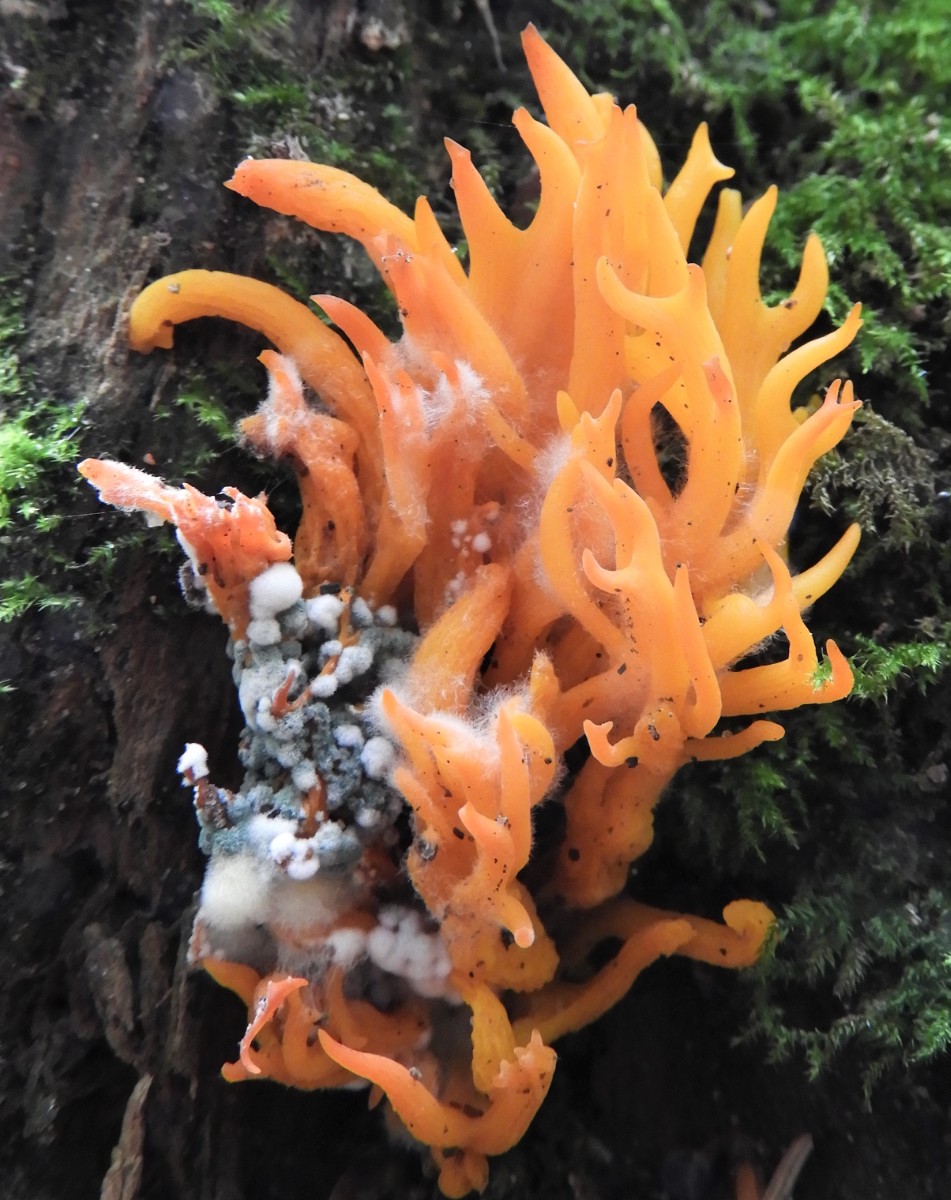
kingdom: Fungi
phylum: Basidiomycota
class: Dacrymycetes
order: Dacrymycetales
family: Dacrymycetaceae
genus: Calocera
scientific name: Calocera viscosa
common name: almindelig guldgaffel
